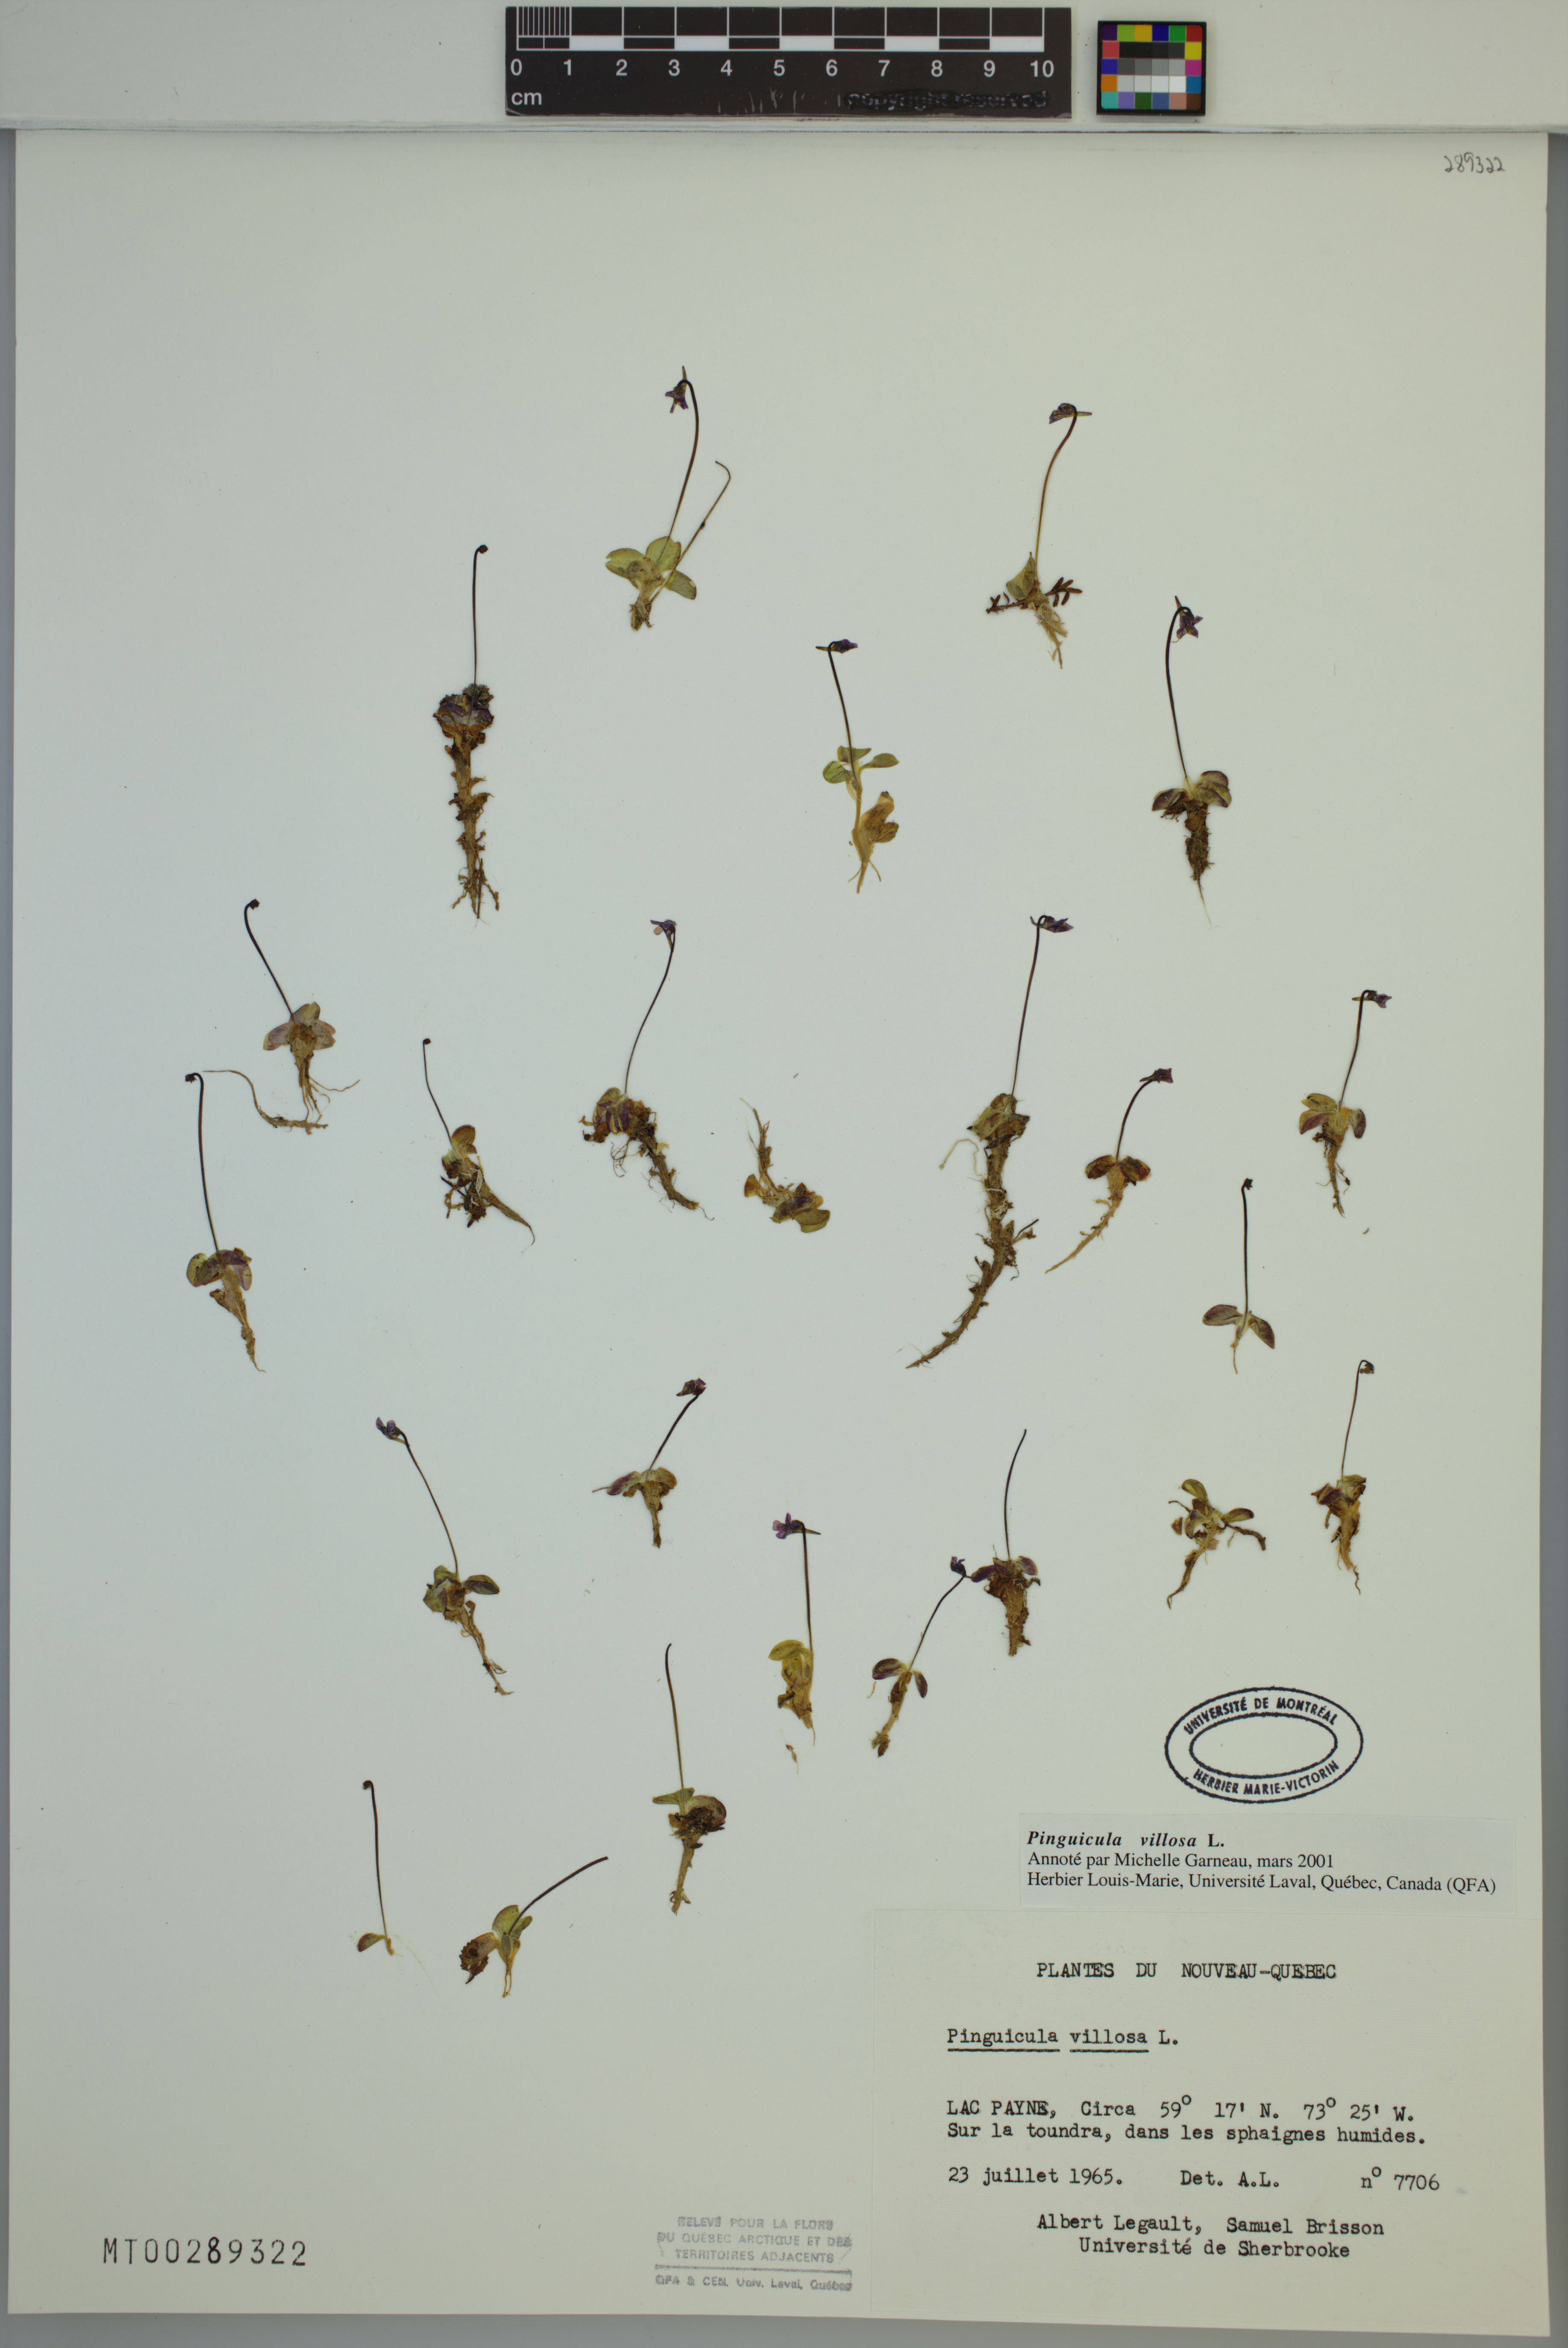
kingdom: Plantae
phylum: Tracheophyta
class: Magnoliopsida
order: Lamiales
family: Lentibulariaceae
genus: Pinguicula
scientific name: Pinguicula villosa
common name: Hairy butterwort
